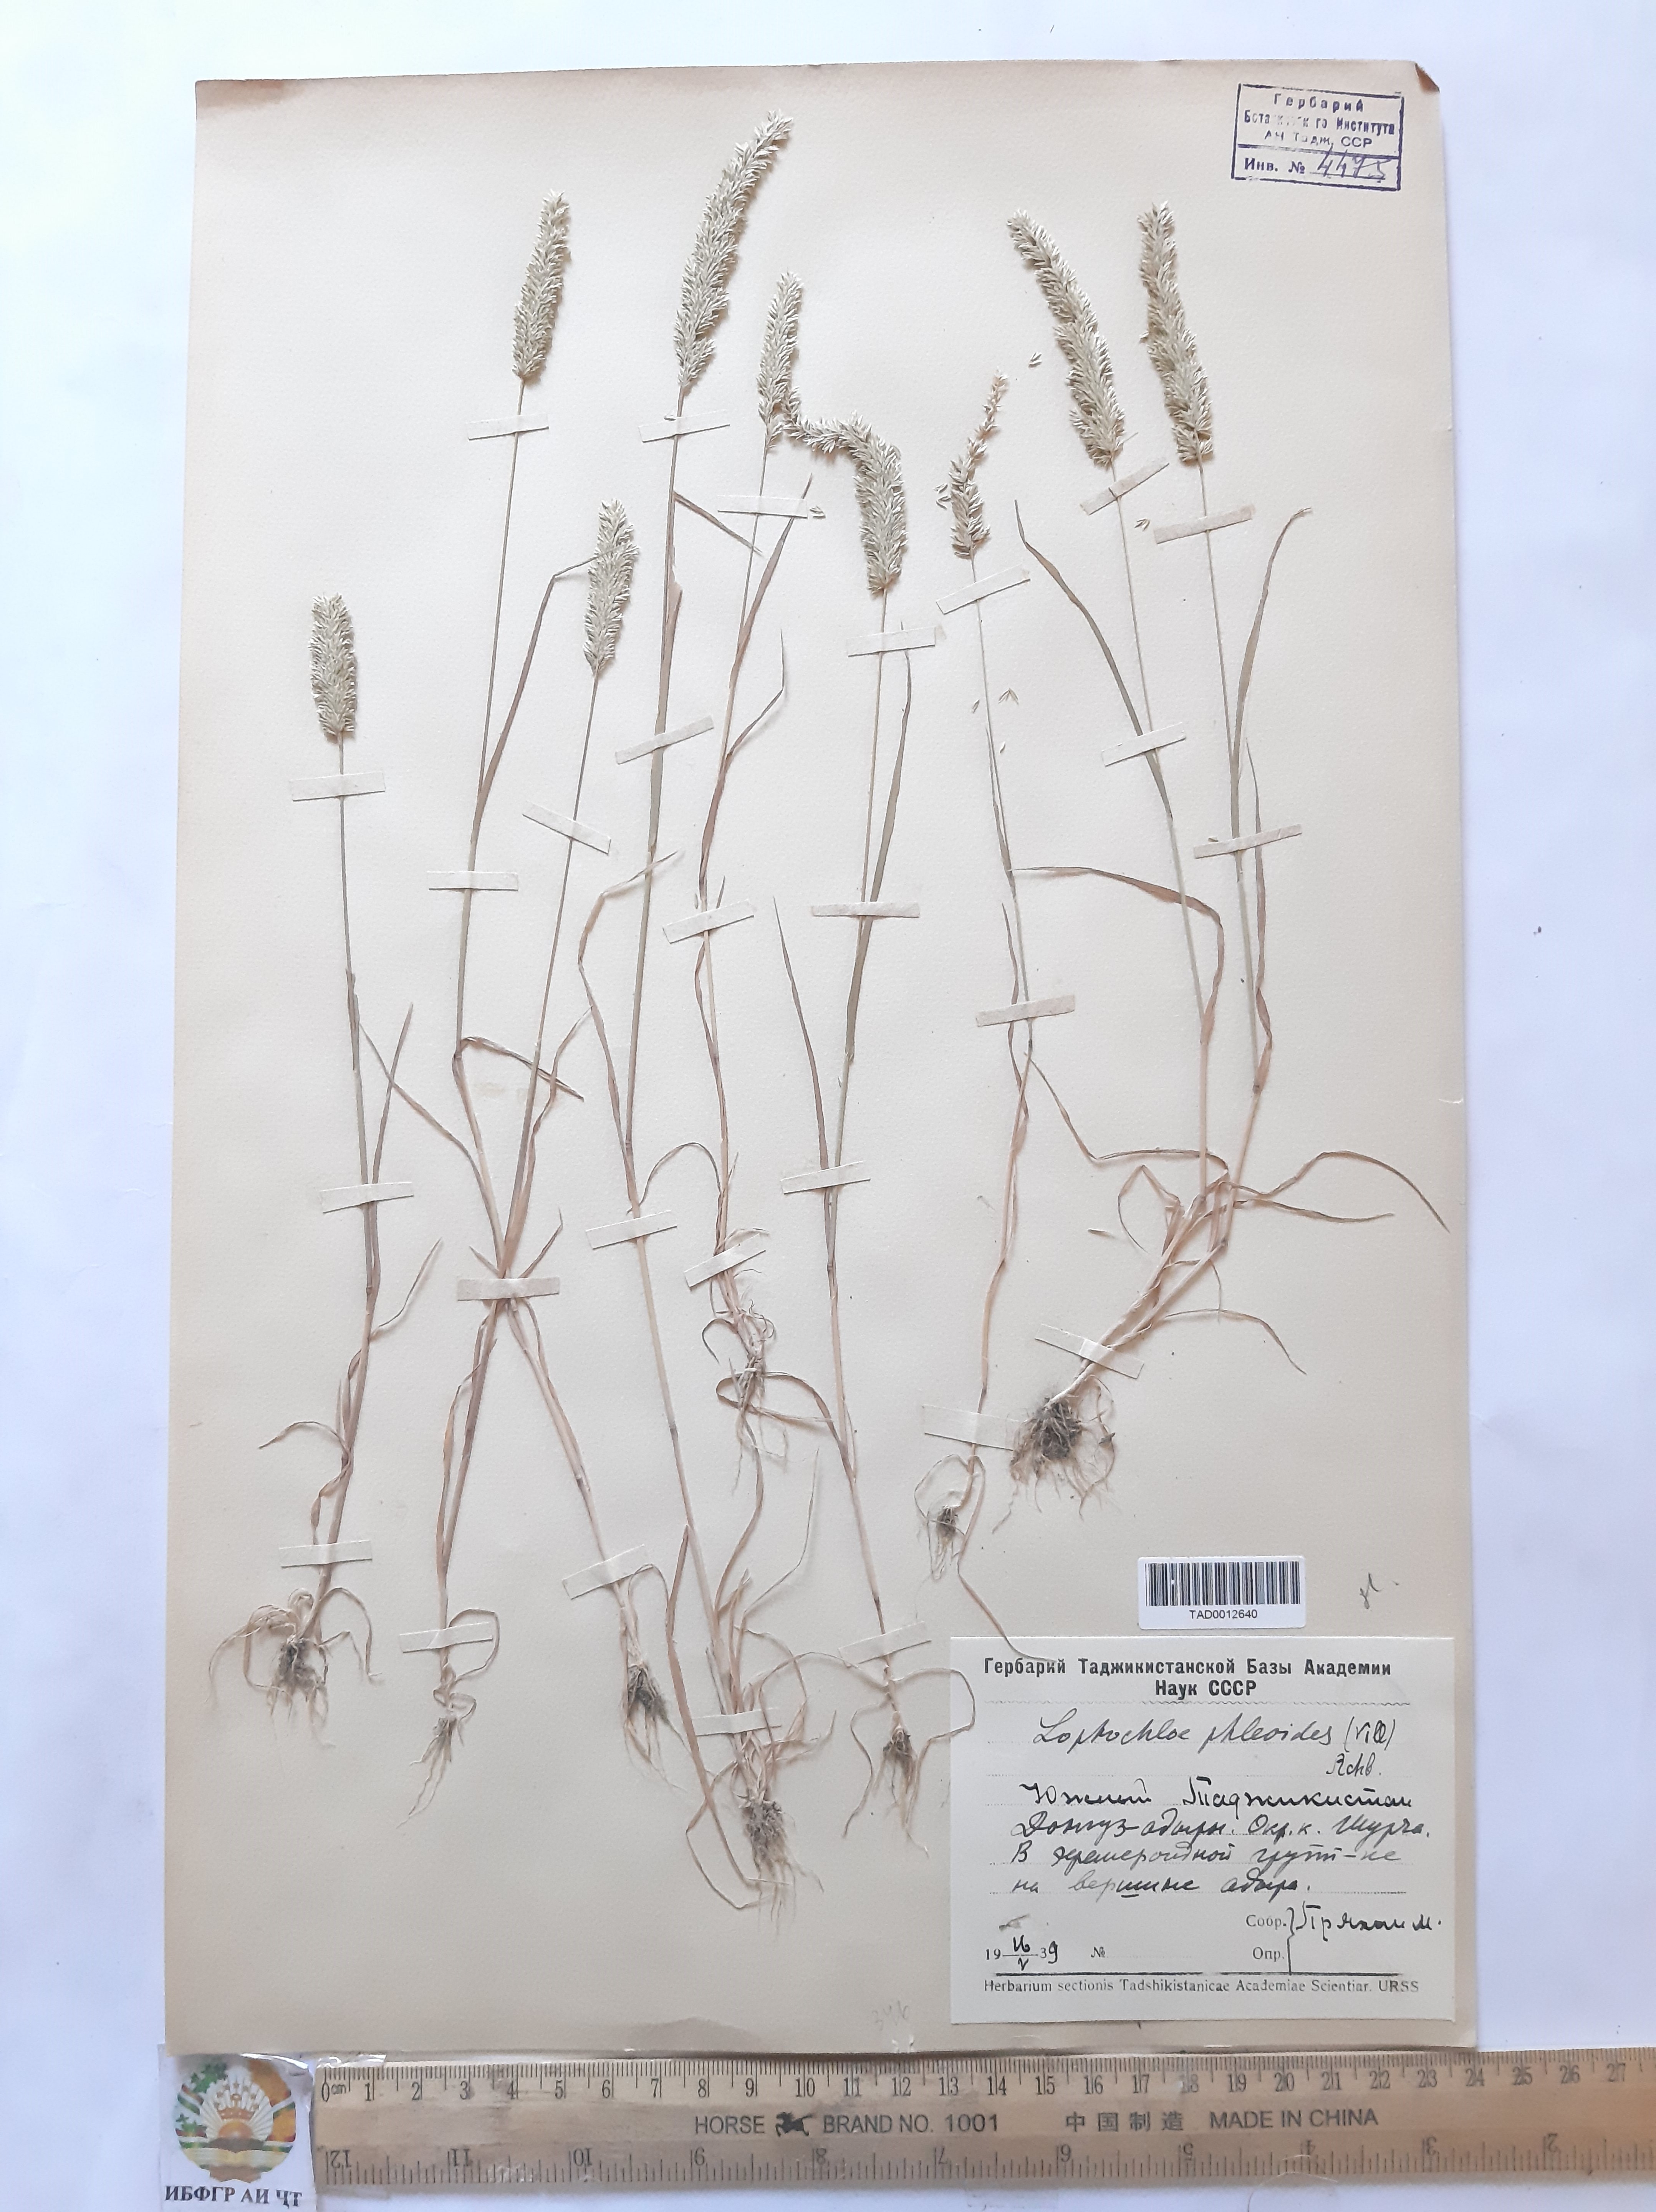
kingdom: Plantae
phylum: Tracheophyta
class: Liliopsida
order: Poales
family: Poaceae
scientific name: Poaceae
